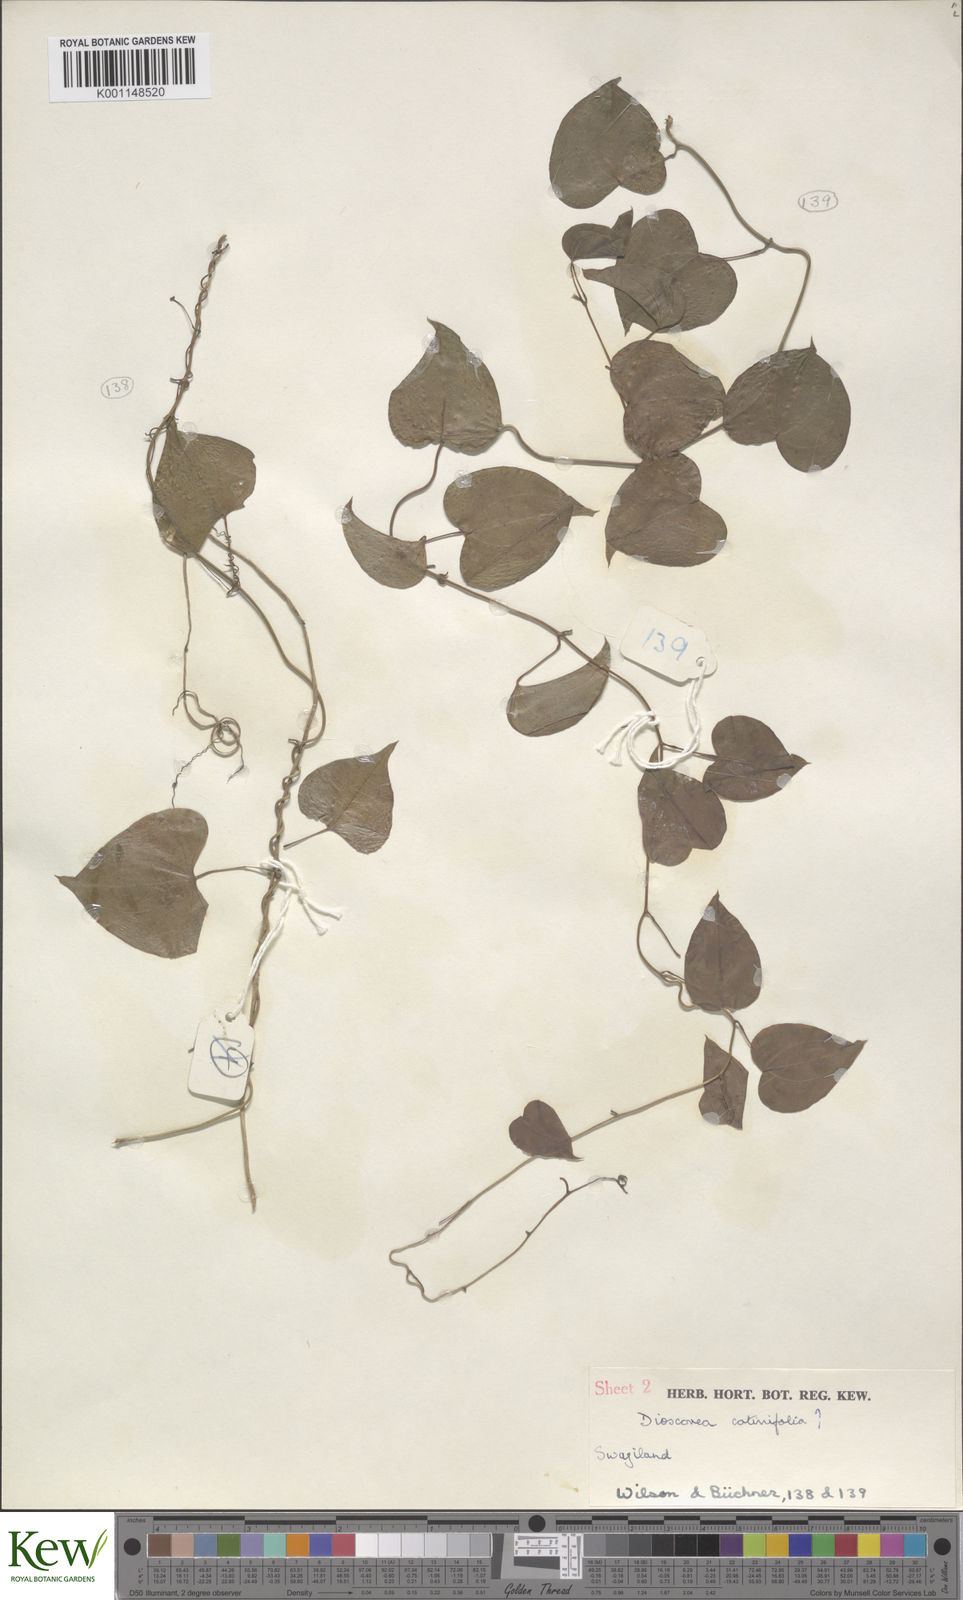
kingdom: Plantae
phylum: Tracheophyta
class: Liliopsida
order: Dioscoreales
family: Dioscoreaceae
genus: Dioscorea
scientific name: Dioscorea cotinifolia
